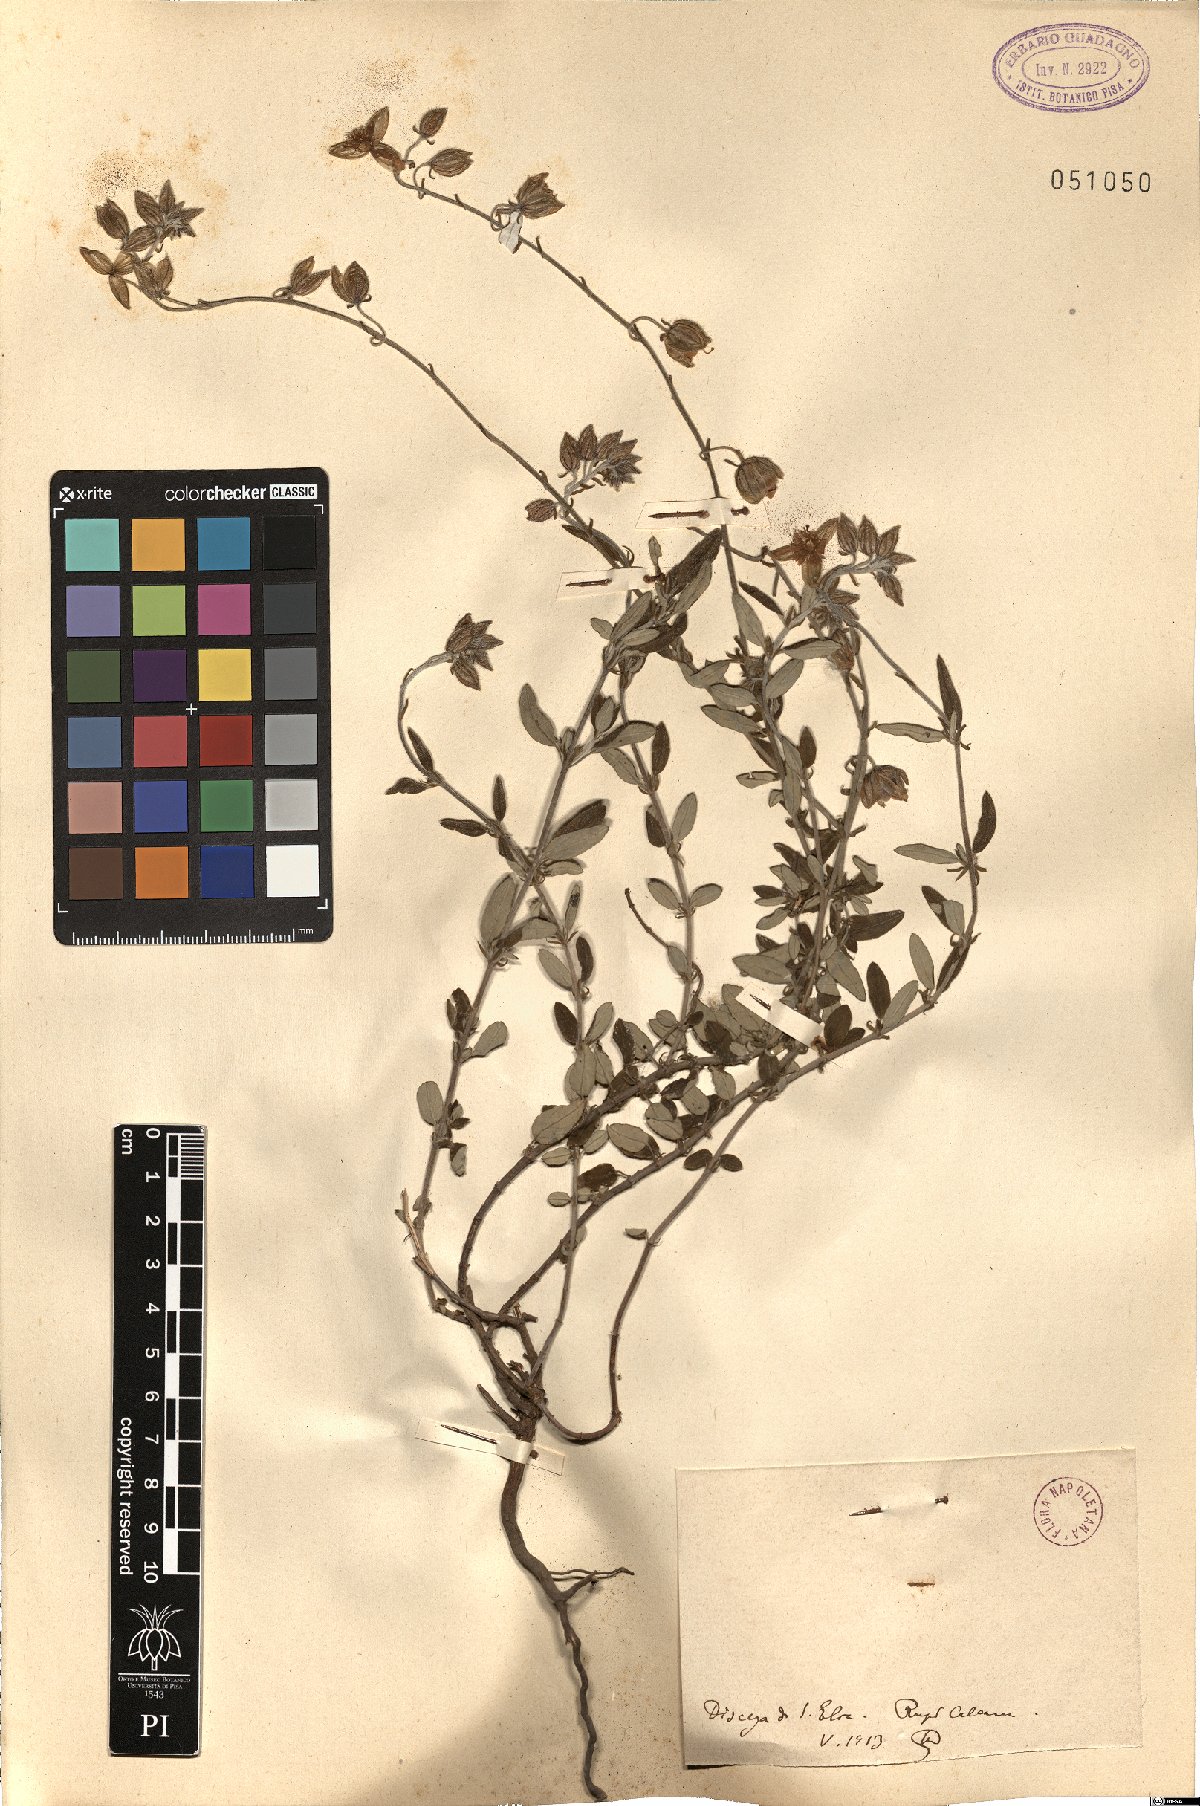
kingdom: Plantae
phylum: Tracheophyta
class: Magnoliopsida
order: Malvales
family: Cistaceae
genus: Helianthemum
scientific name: Helianthemum
